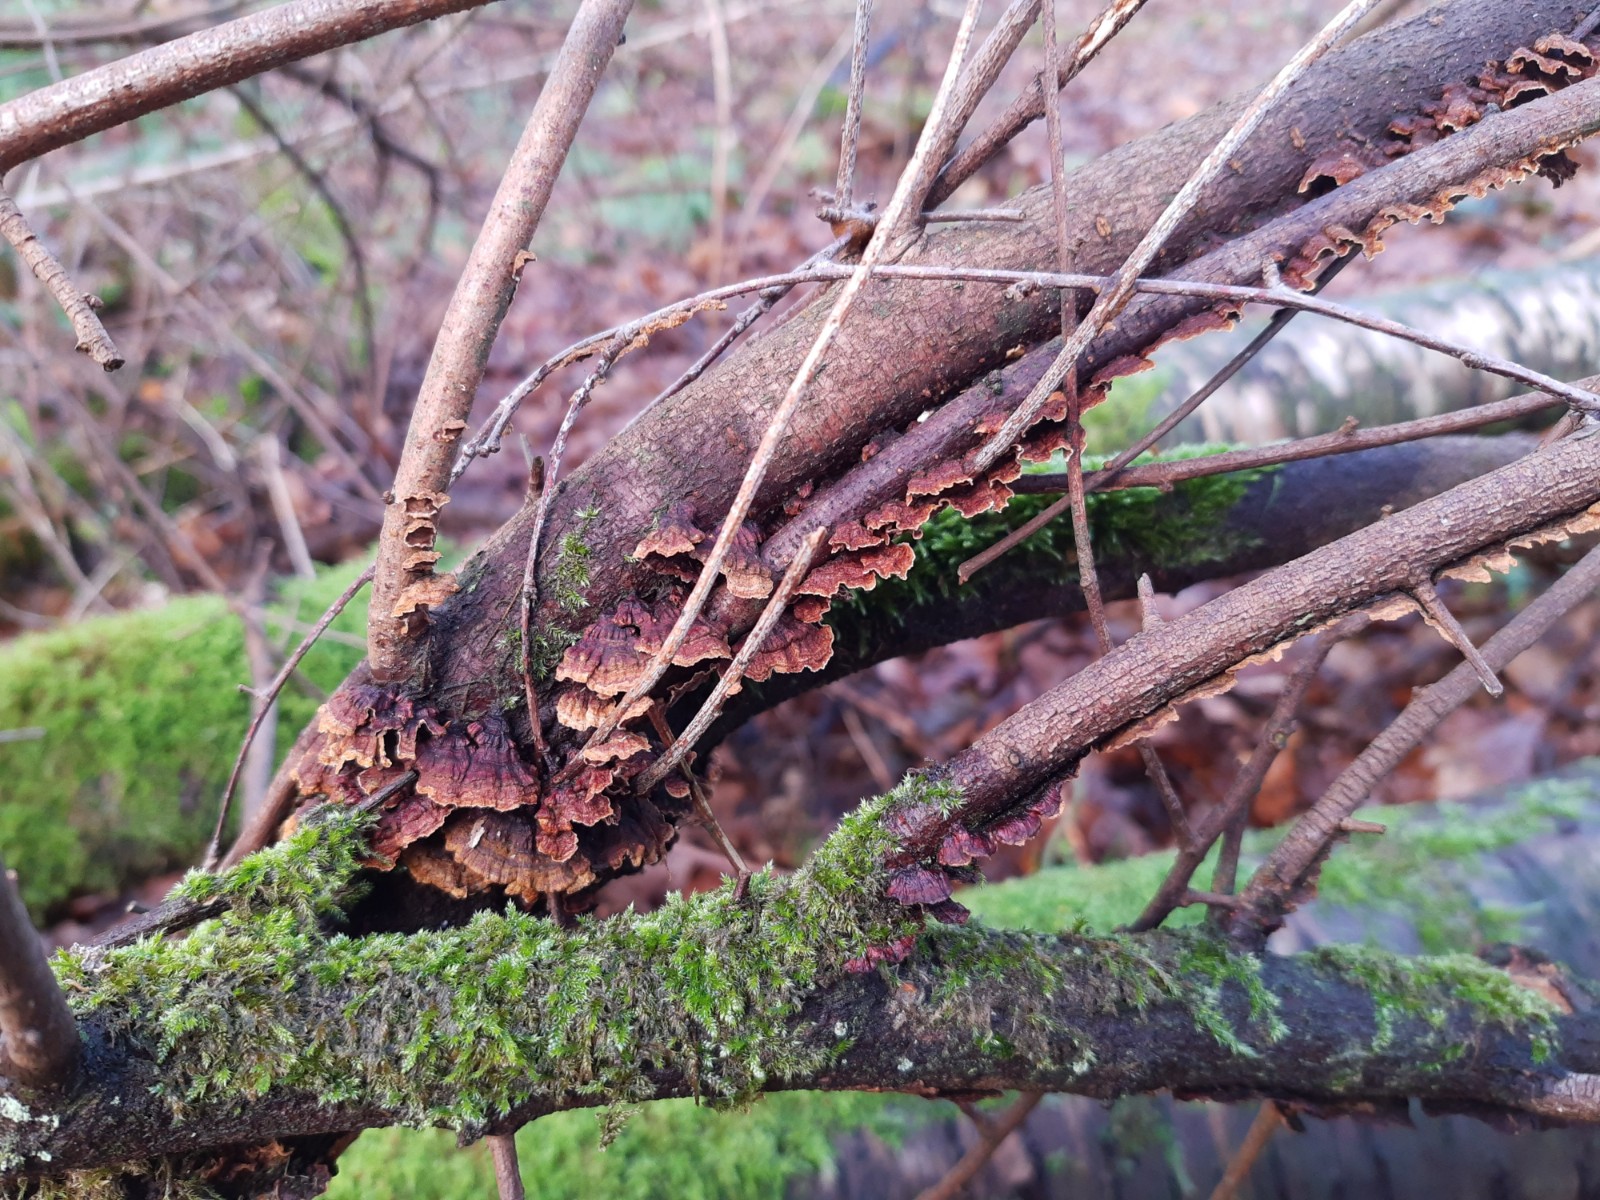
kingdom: Fungi
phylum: Basidiomycota
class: Agaricomycetes
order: Hymenochaetales
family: Hymenochaetaceae
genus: Hydnoporia
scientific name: Hydnoporia tabacina
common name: tobaksbrun ruslædersvamp
